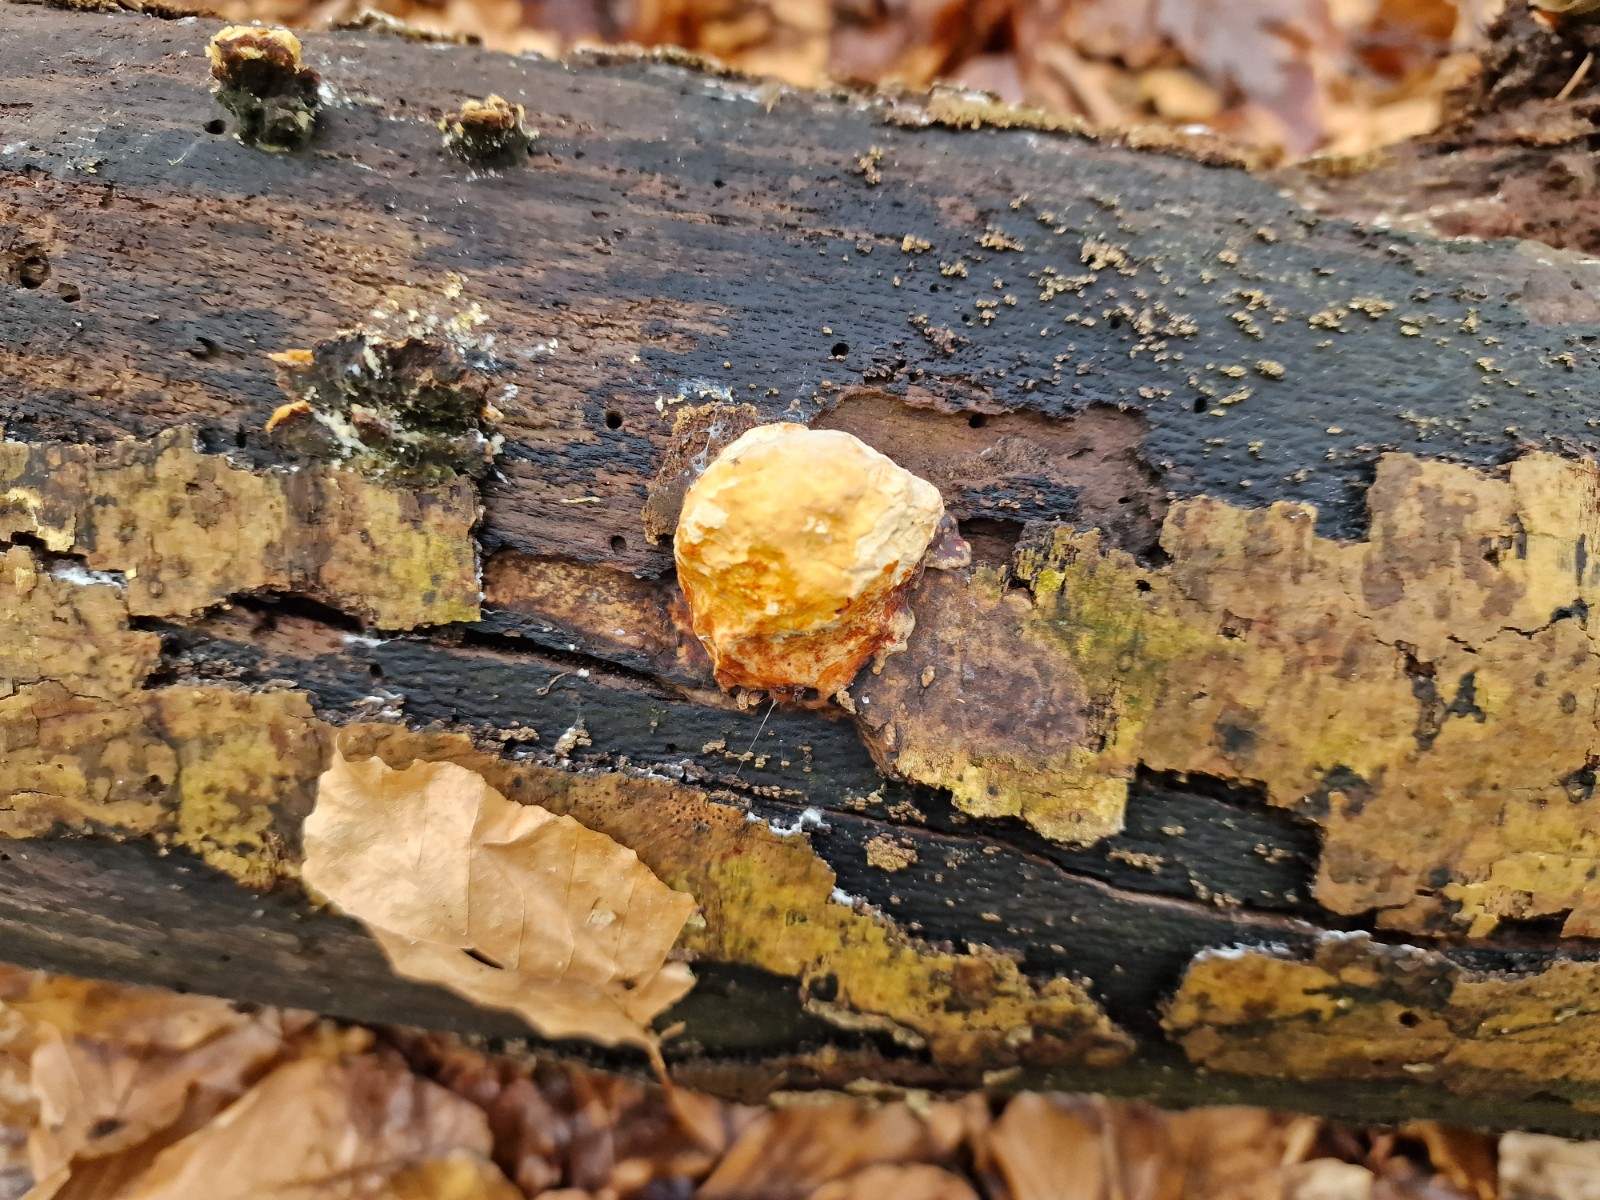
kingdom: Fungi
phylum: Basidiomycota
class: Agaricomycetes
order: Polyporales
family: Fomitopsidaceae
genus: Fomitopsis
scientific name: Fomitopsis pinicola
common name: randbæltet hovporesvamp
